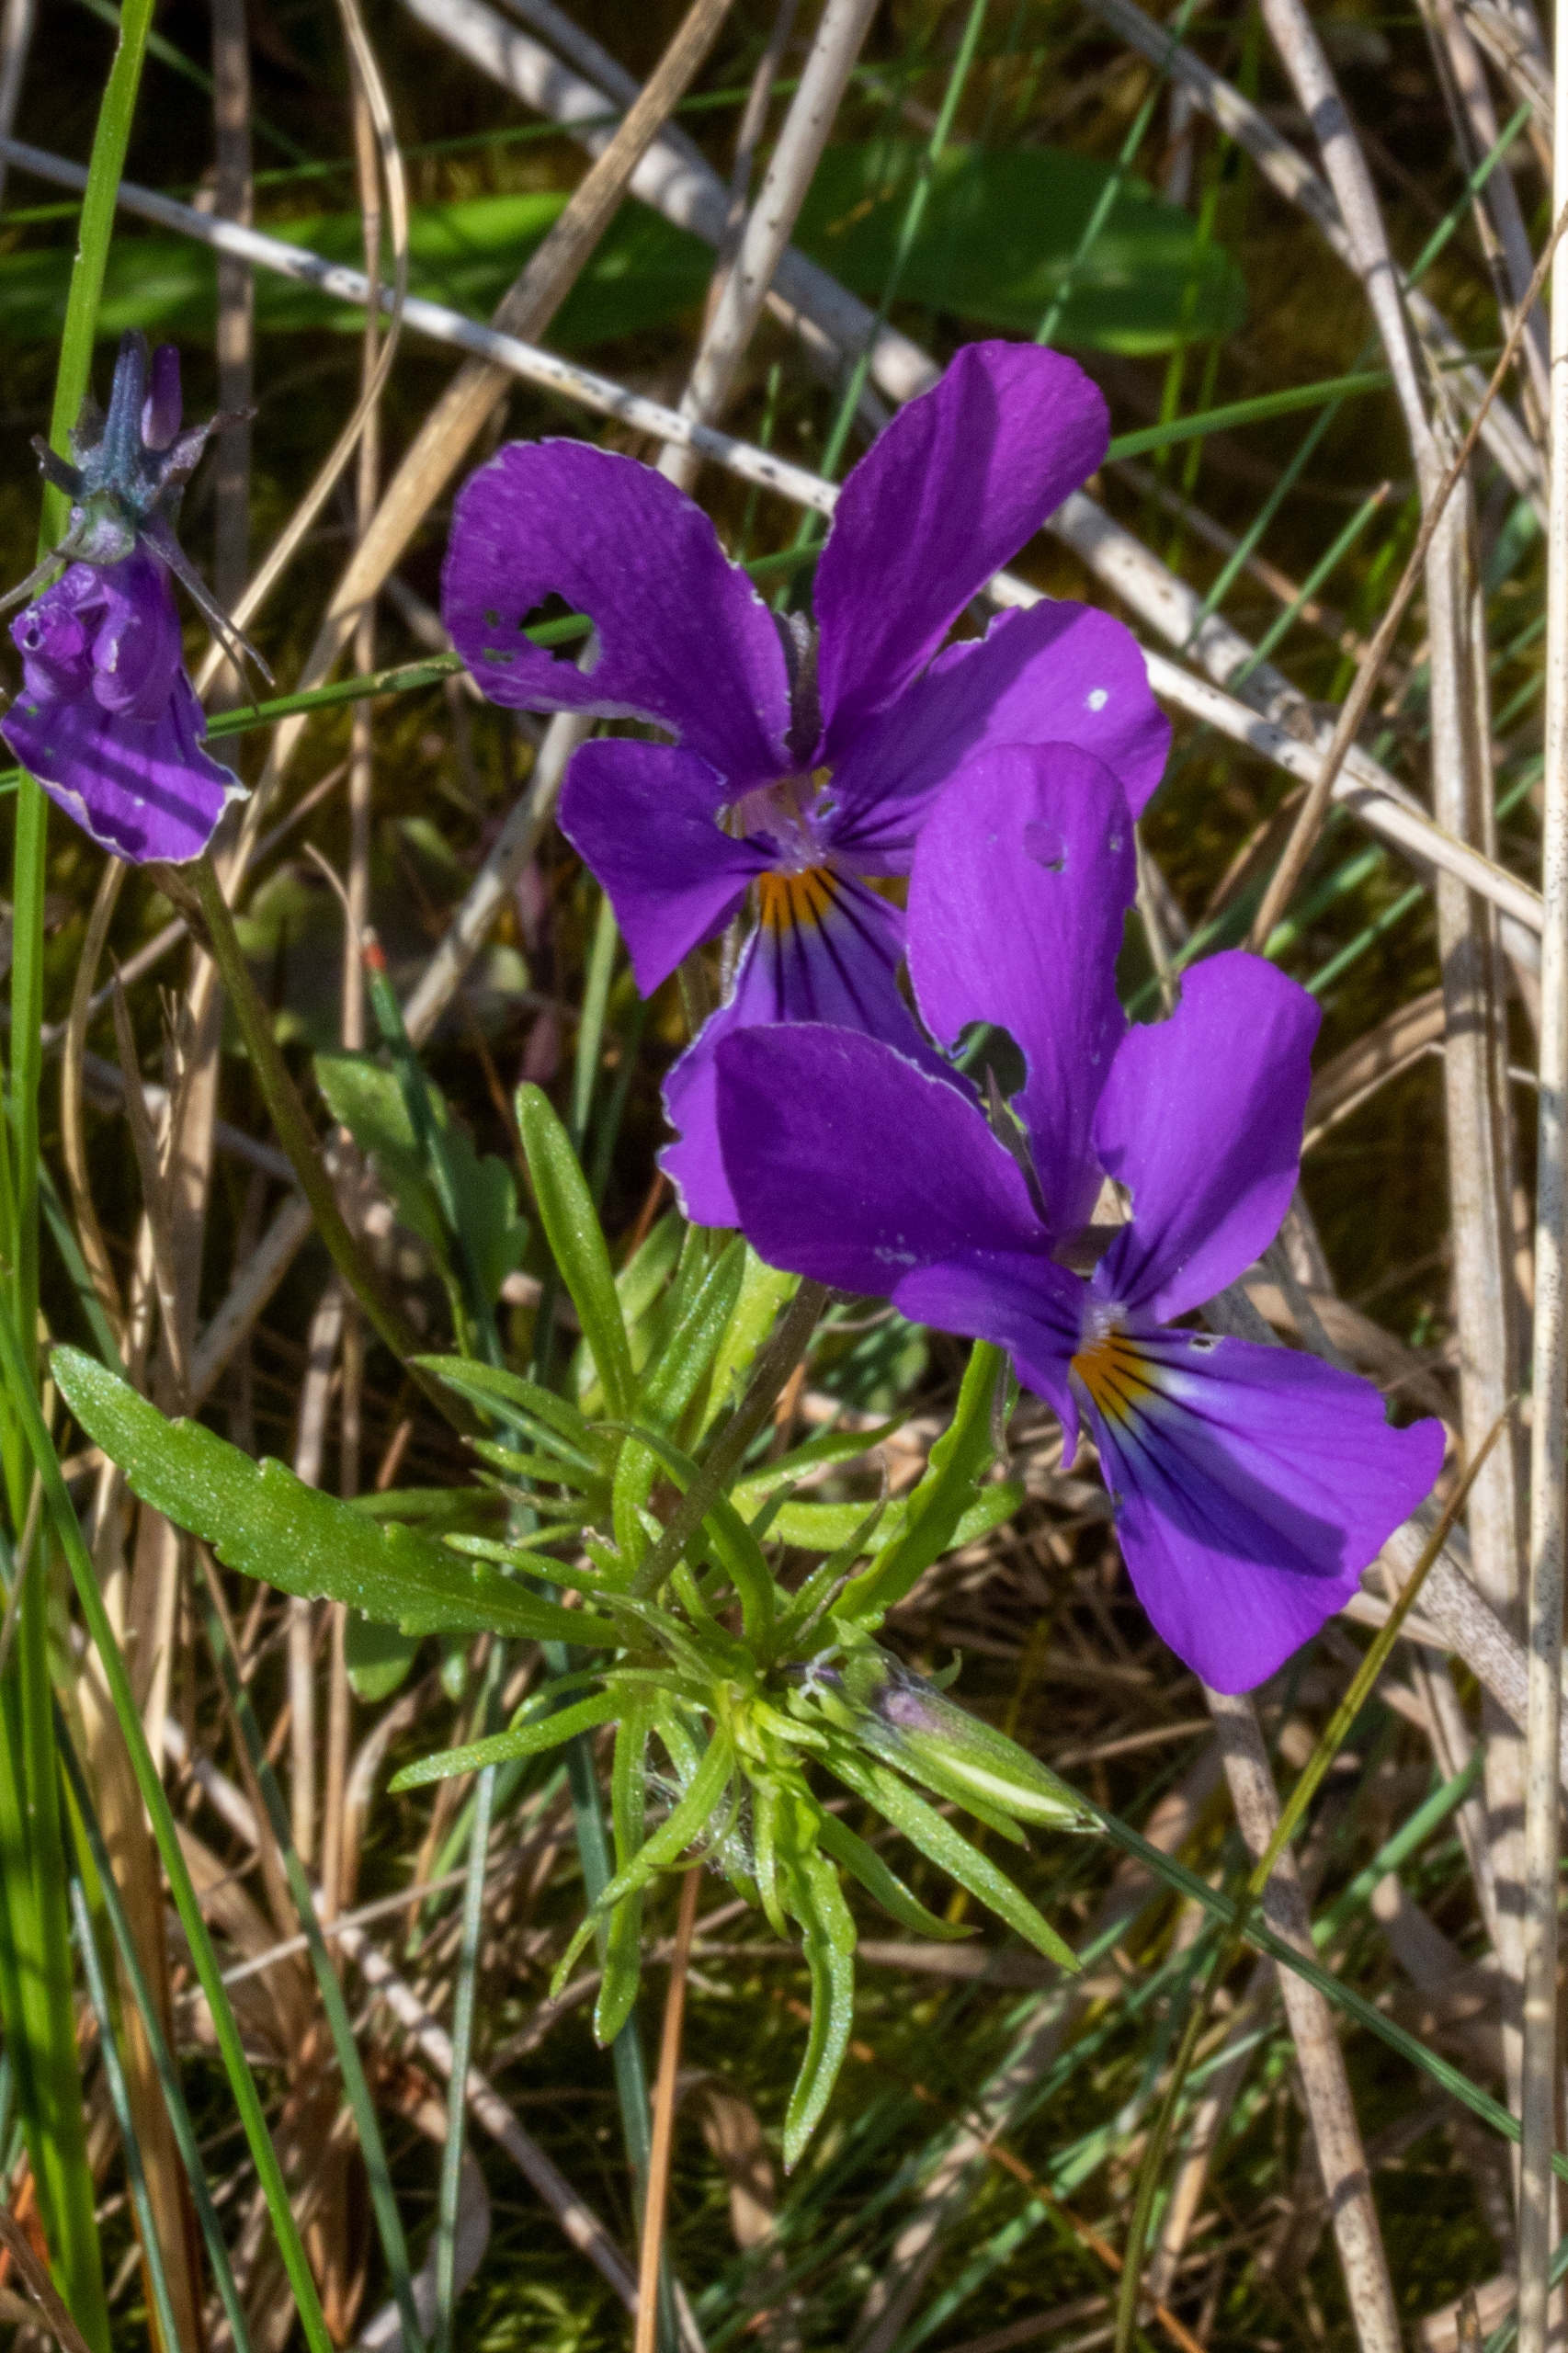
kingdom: Plantae
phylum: Tracheophyta
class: Magnoliopsida
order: Malpighiales
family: Violaceae
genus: Viola
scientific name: Viola tricolor
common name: Almindelig stedmoderblomst
